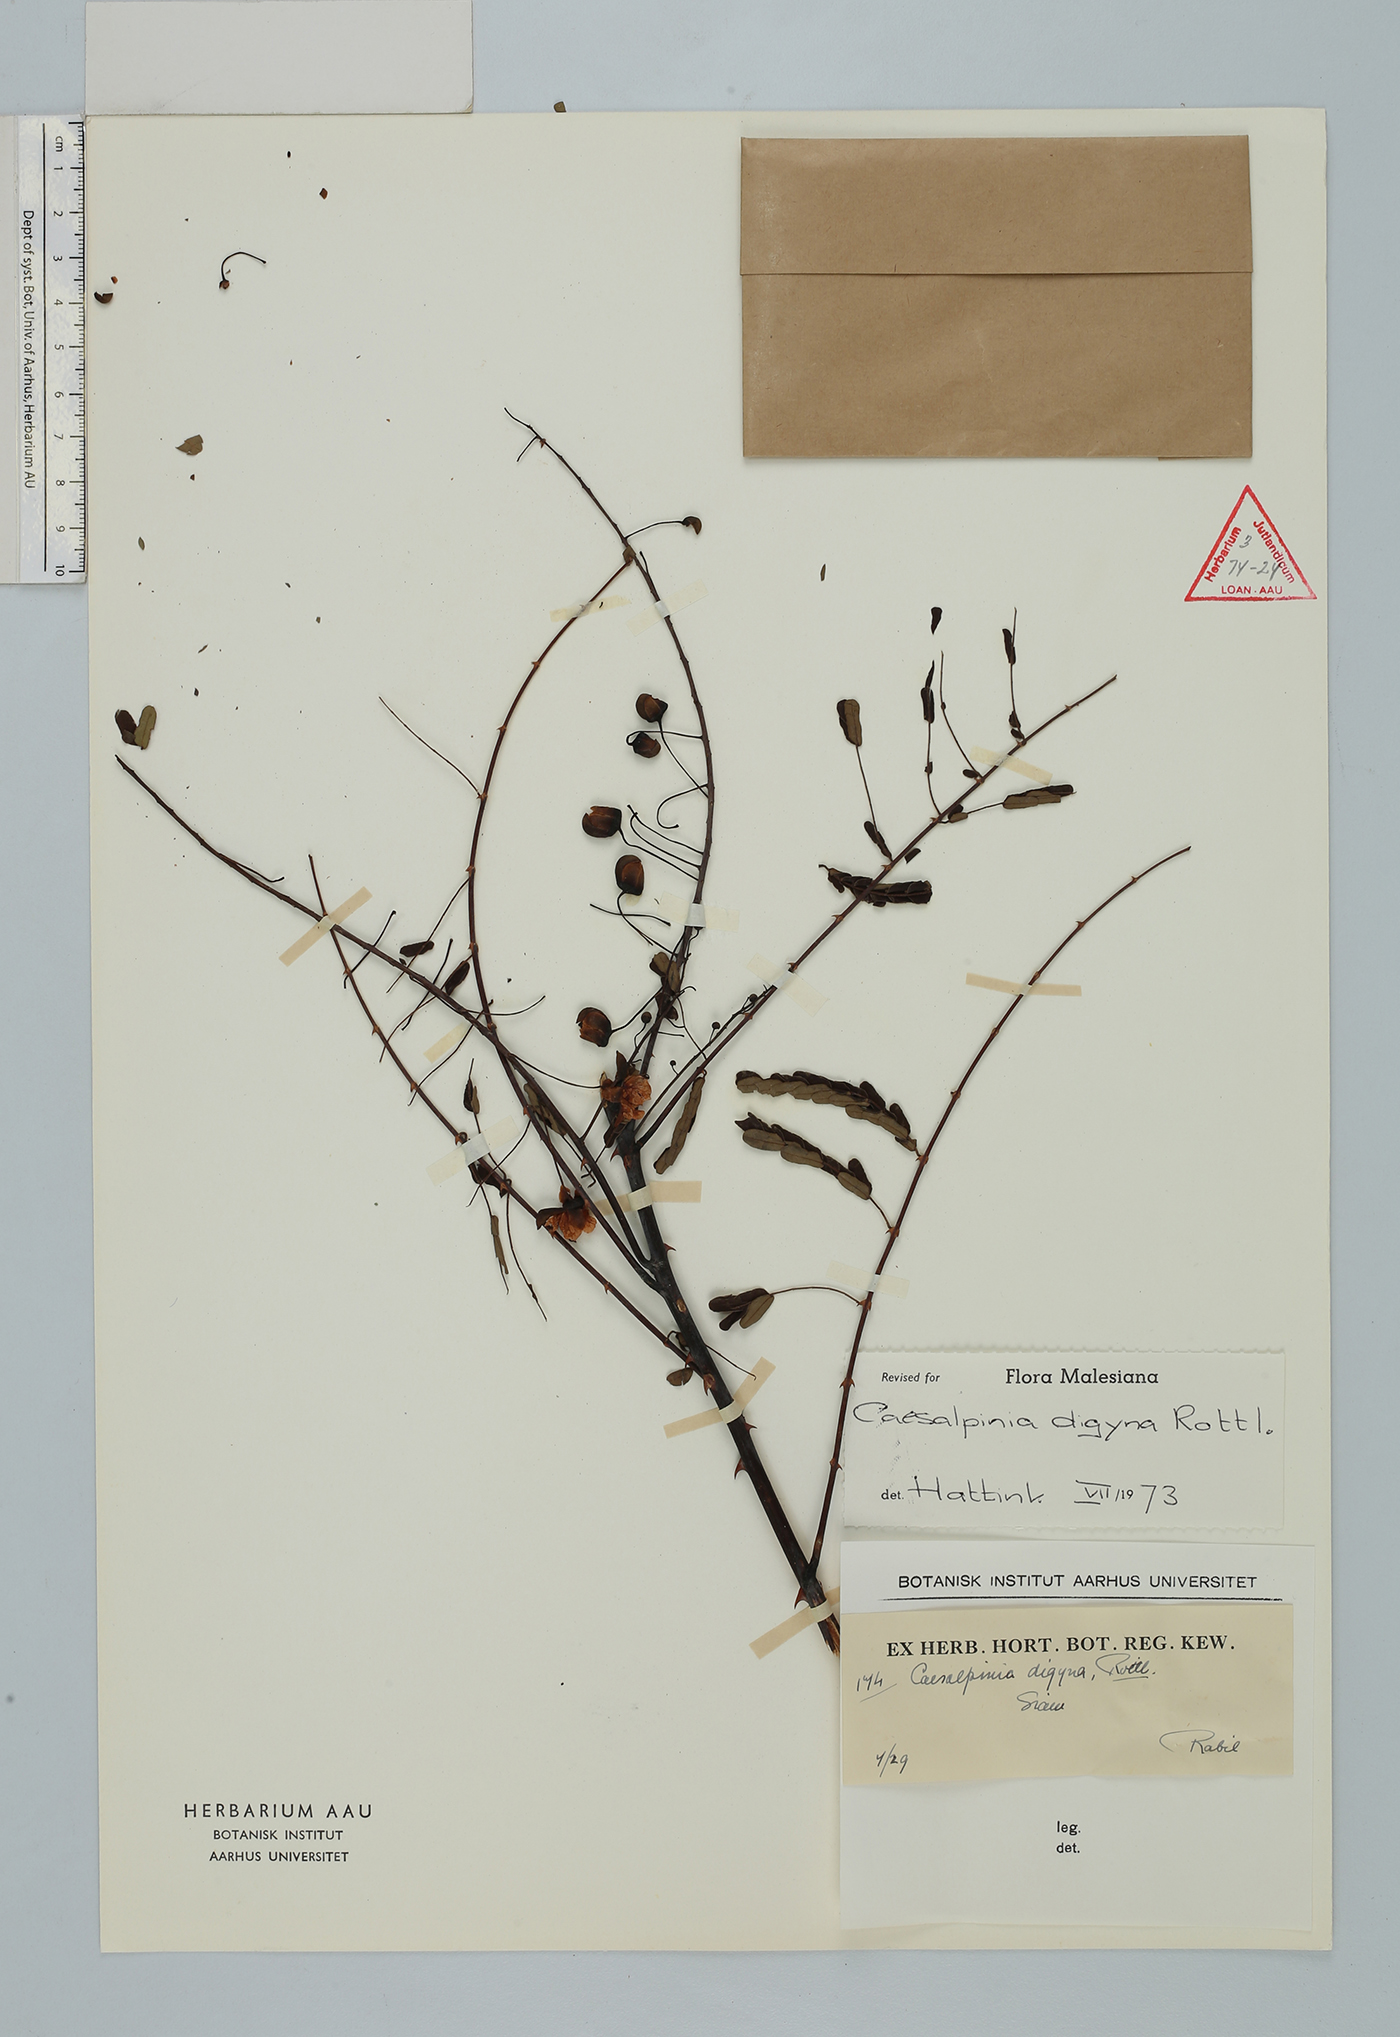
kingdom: Plantae
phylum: Tracheophyta
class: Magnoliopsida
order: Fabales
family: Fabaceae
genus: Moullava
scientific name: Moullava digyna
